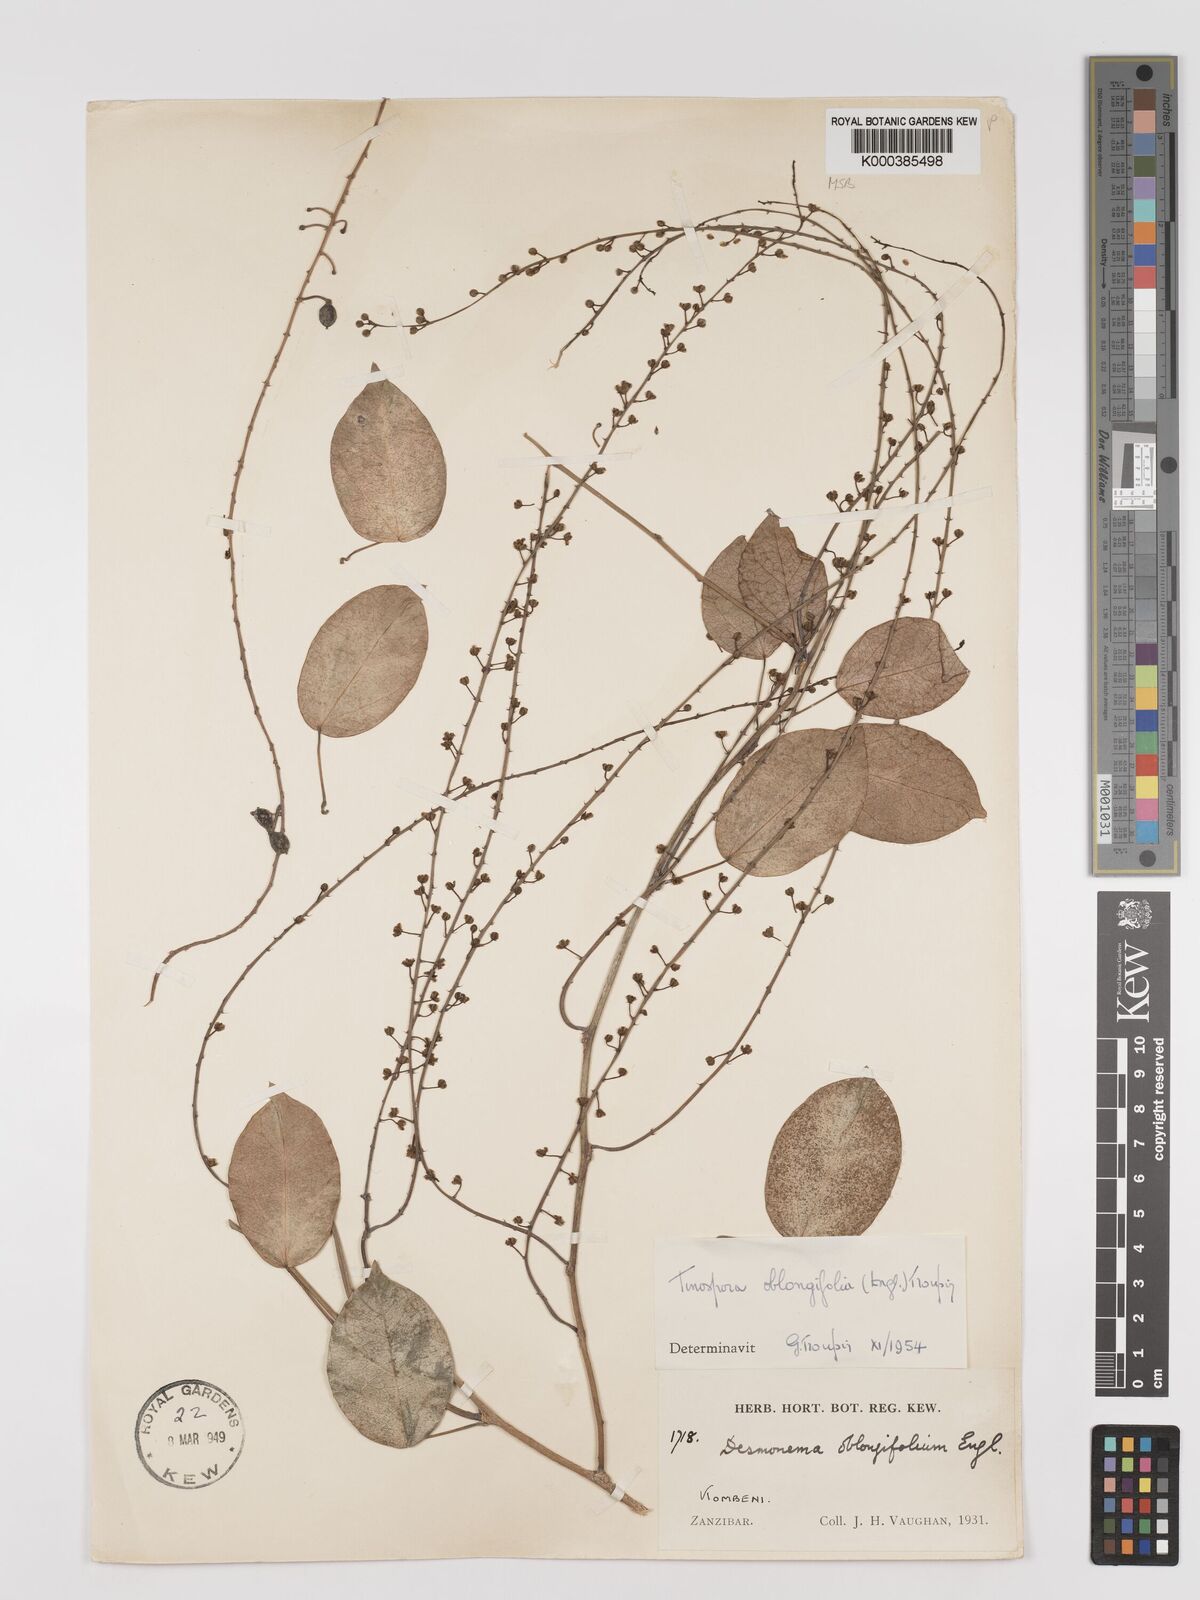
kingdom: Plantae
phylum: Tracheophyta
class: Magnoliopsida
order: Ranunculales
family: Menispermaceae
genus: Tinospora
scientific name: Tinospora oblongifolia
